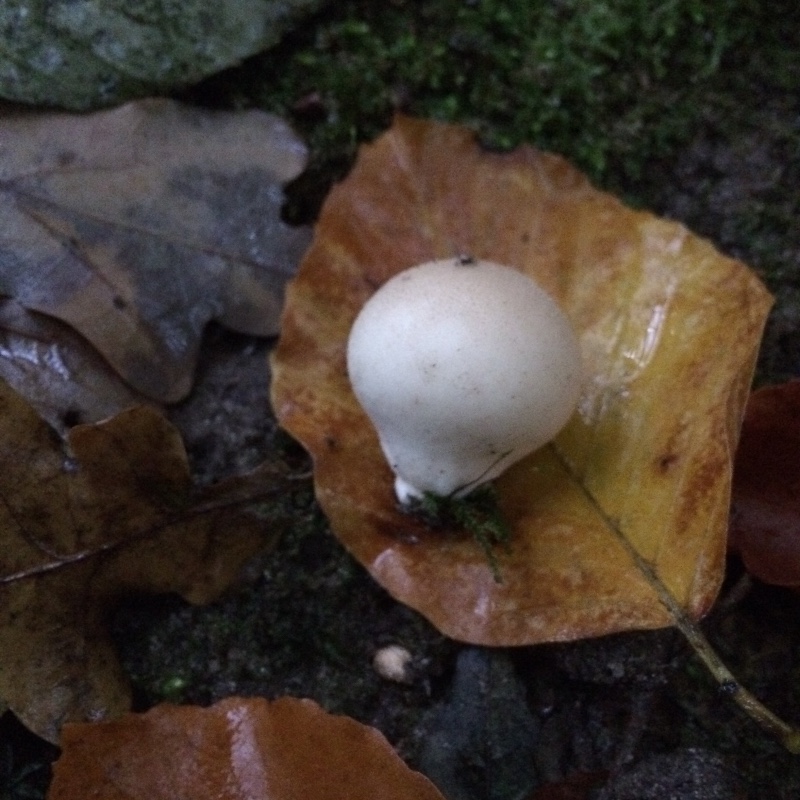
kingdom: Fungi
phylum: Basidiomycota
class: Agaricomycetes
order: Agaricales
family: Lycoperdaceae
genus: Apioperdon
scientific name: Apioperdon pyriforme
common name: pære-støvbold
